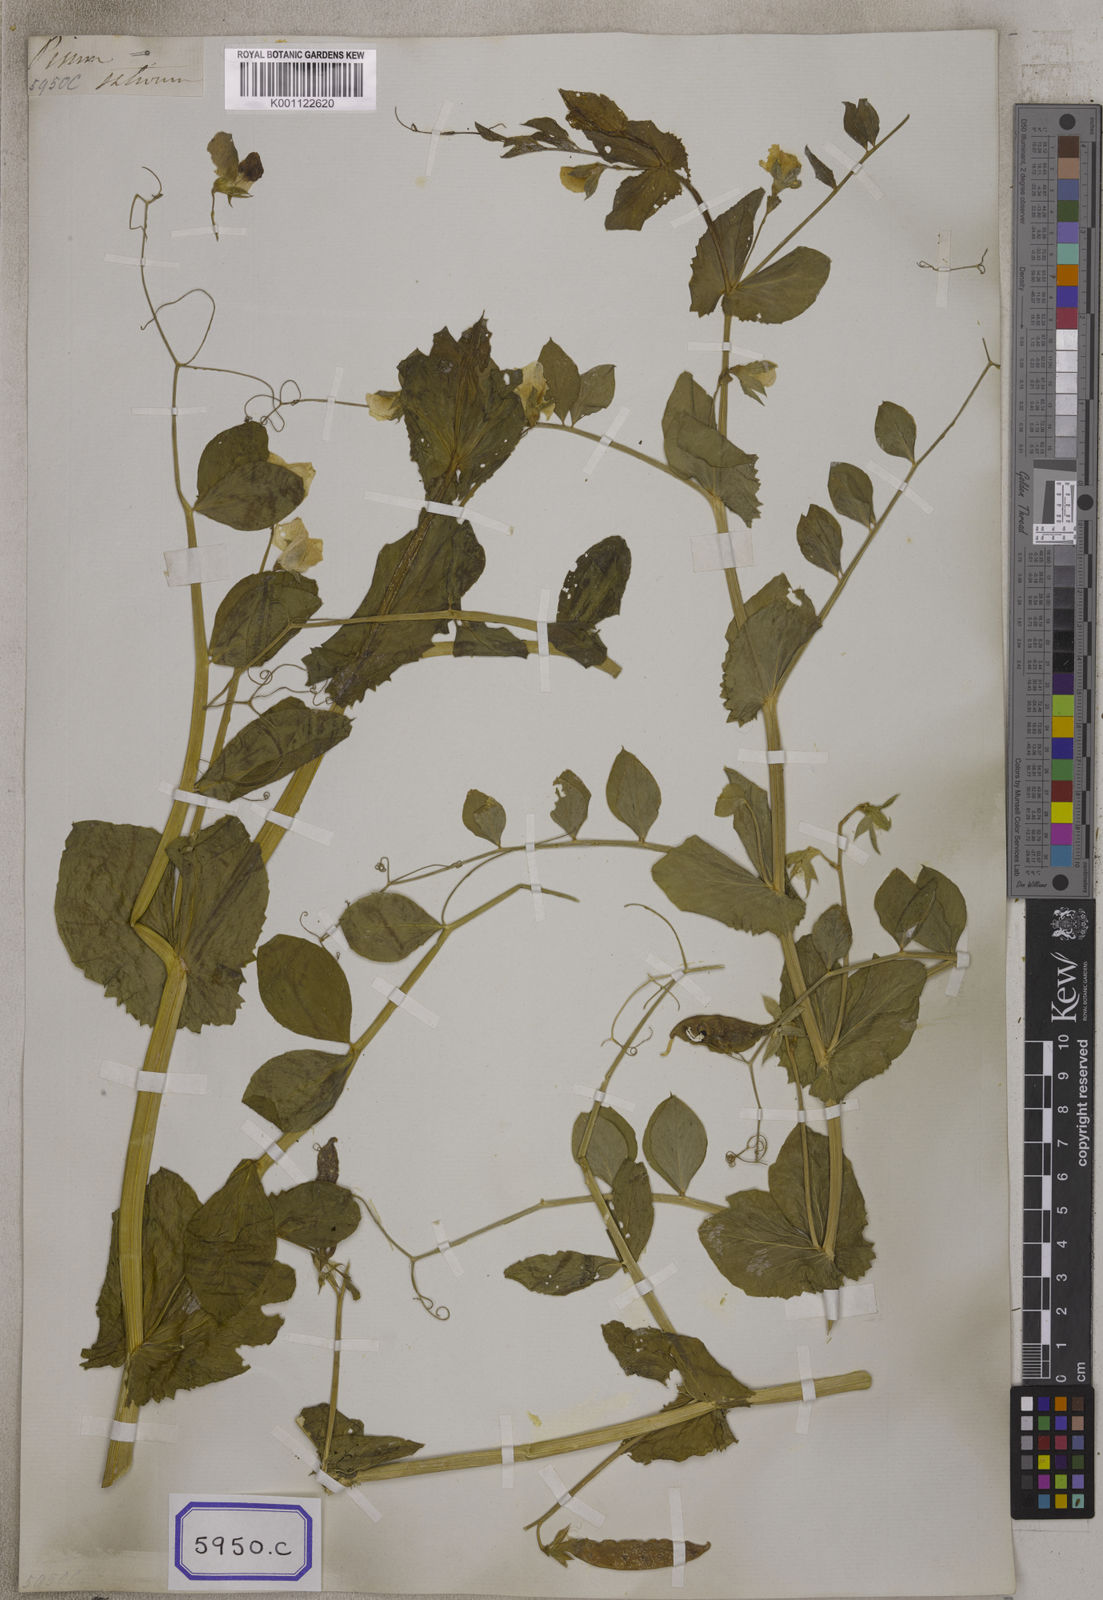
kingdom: Plantae
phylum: Tracheophyta
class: Magnoliopsida
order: Fabales
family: Fabaceae
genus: Lathyrus
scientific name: Lathyrus oleraceus
